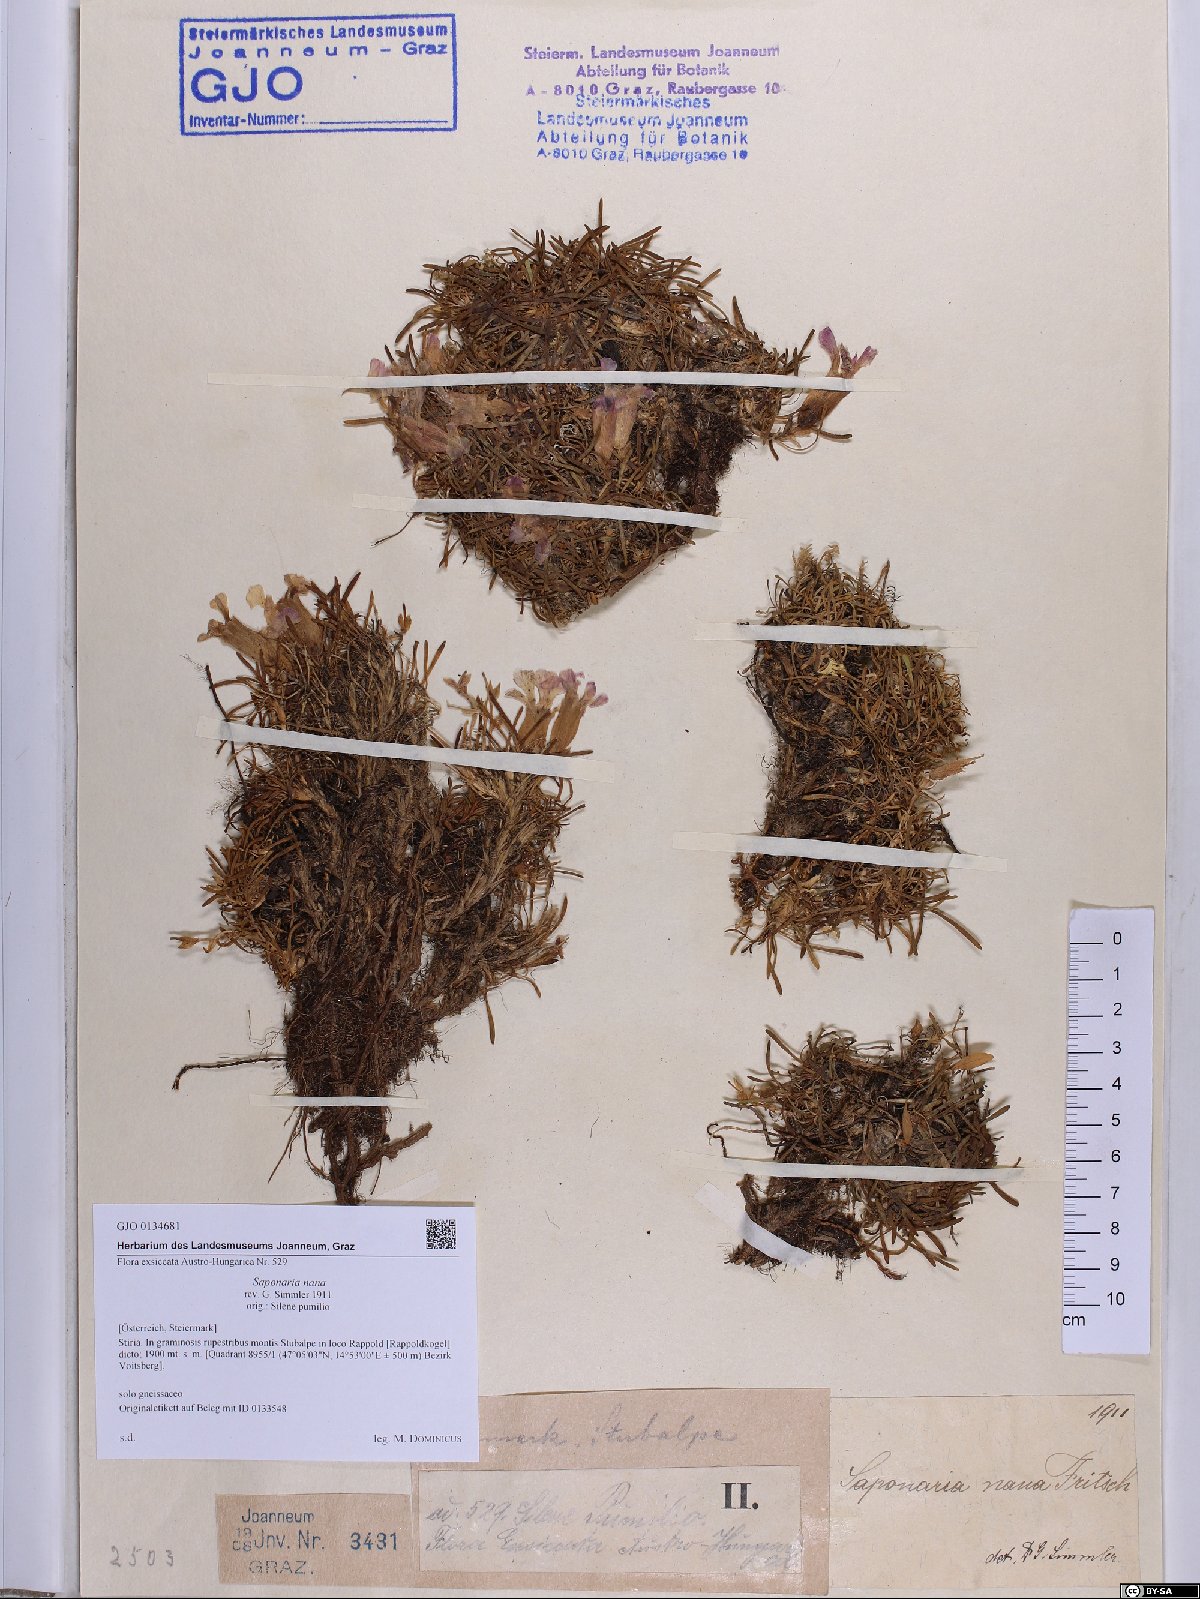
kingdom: Plantae
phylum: Tracheophyta
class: Magnoliopsida
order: Caryophyllales
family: Caryophyllaceae
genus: Saponaria
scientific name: Saponaria pumila
